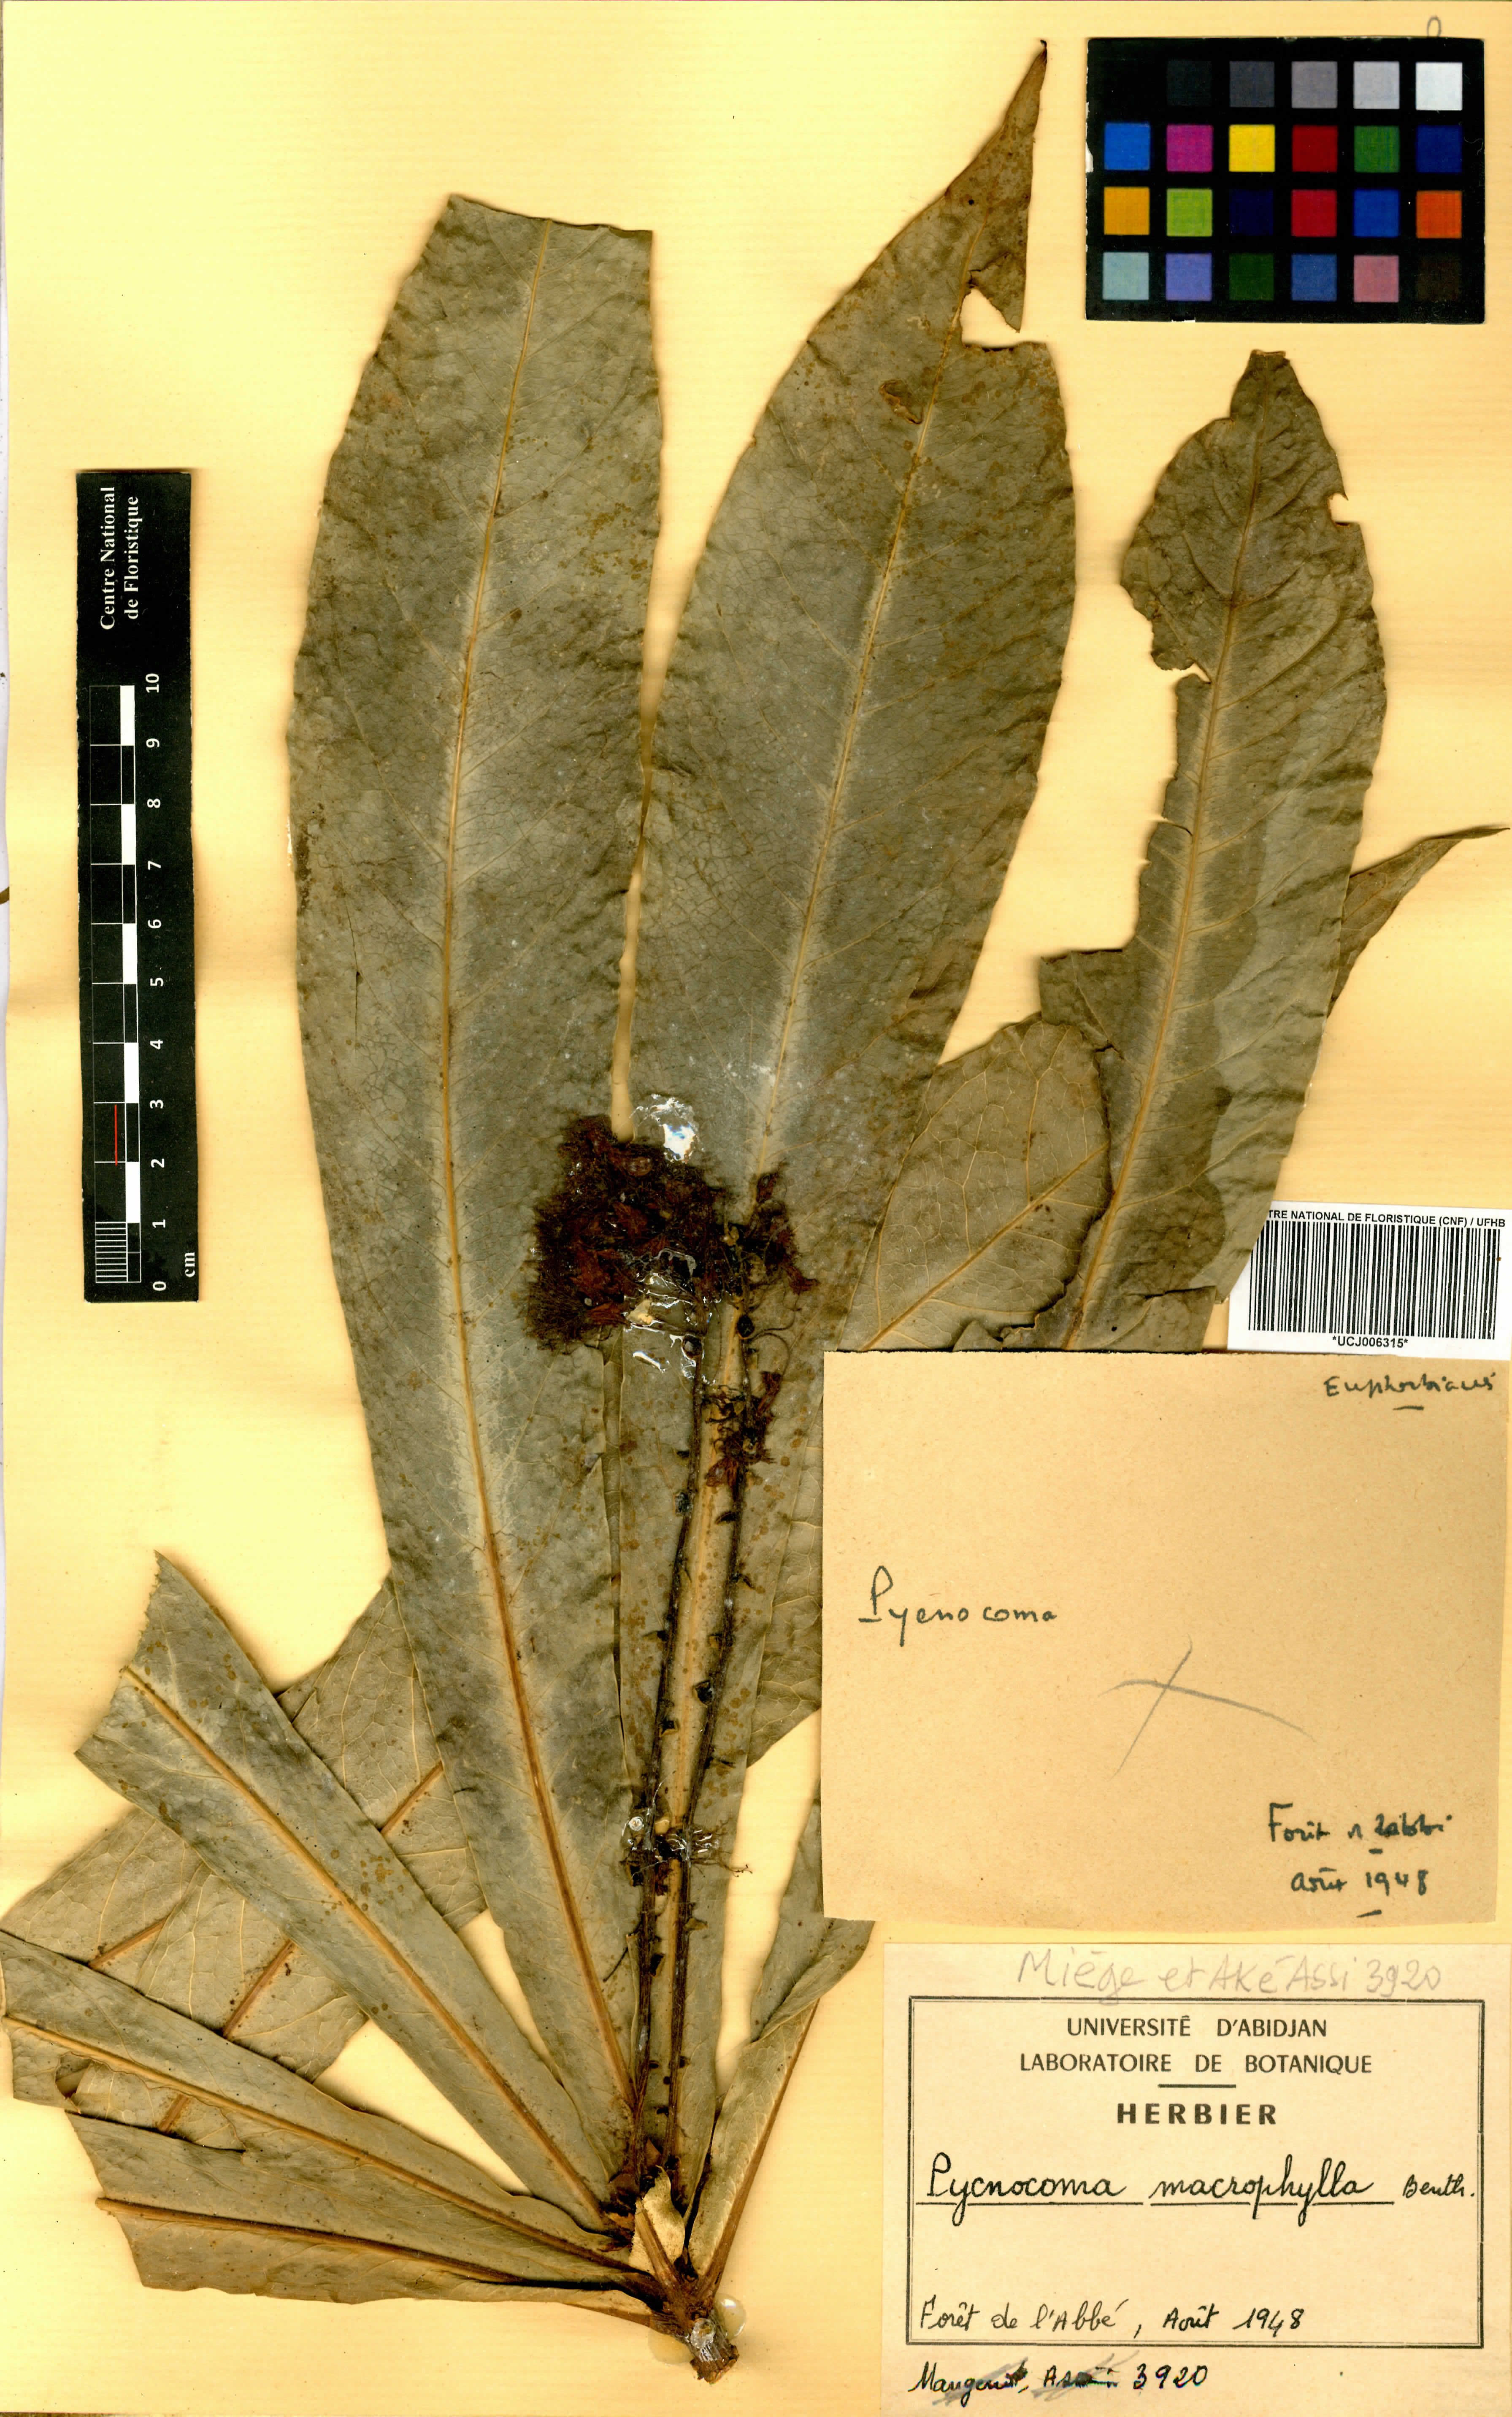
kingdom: Plantae
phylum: Tracheophyta
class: Magnoliopsida
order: Malpighiales
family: Euphorbiaceae
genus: Pycnocoma
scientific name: Pycnocoma macrophylla
